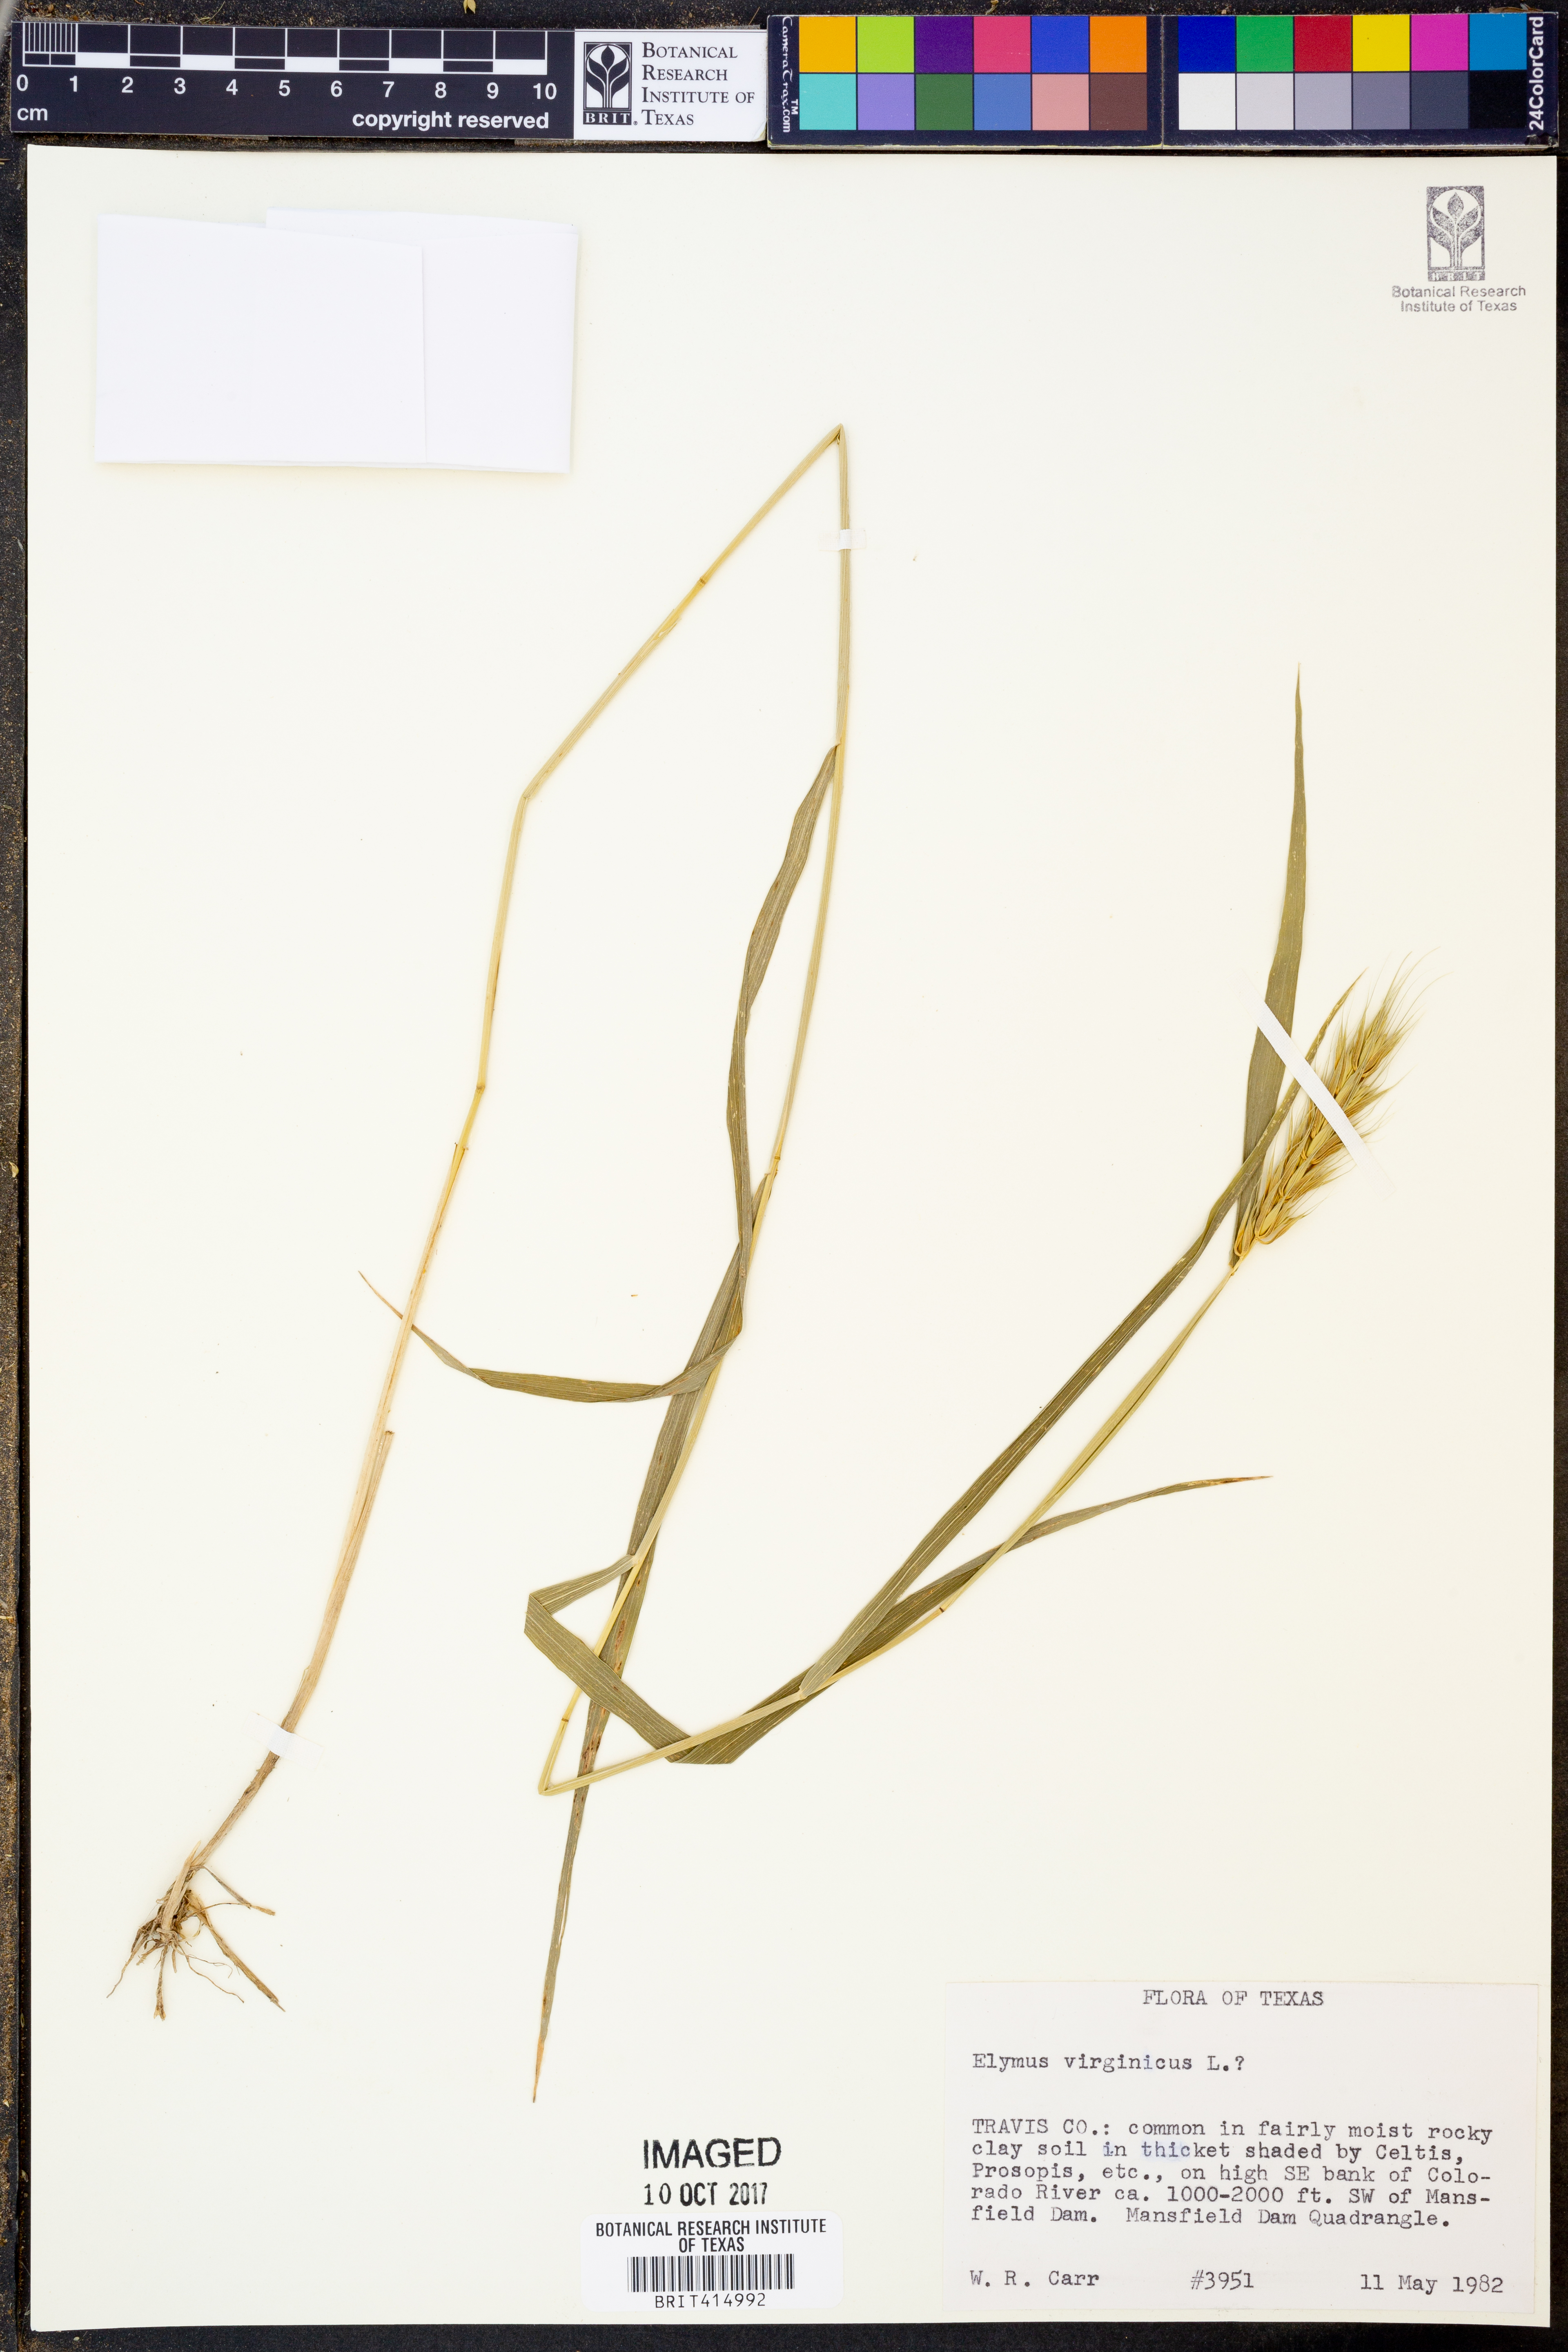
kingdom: Plantae
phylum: Tracheophyta
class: Liliopsida
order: Poales
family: Poaceae
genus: Elymus
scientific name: Elymus virginicus
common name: Common eastern wildrye
